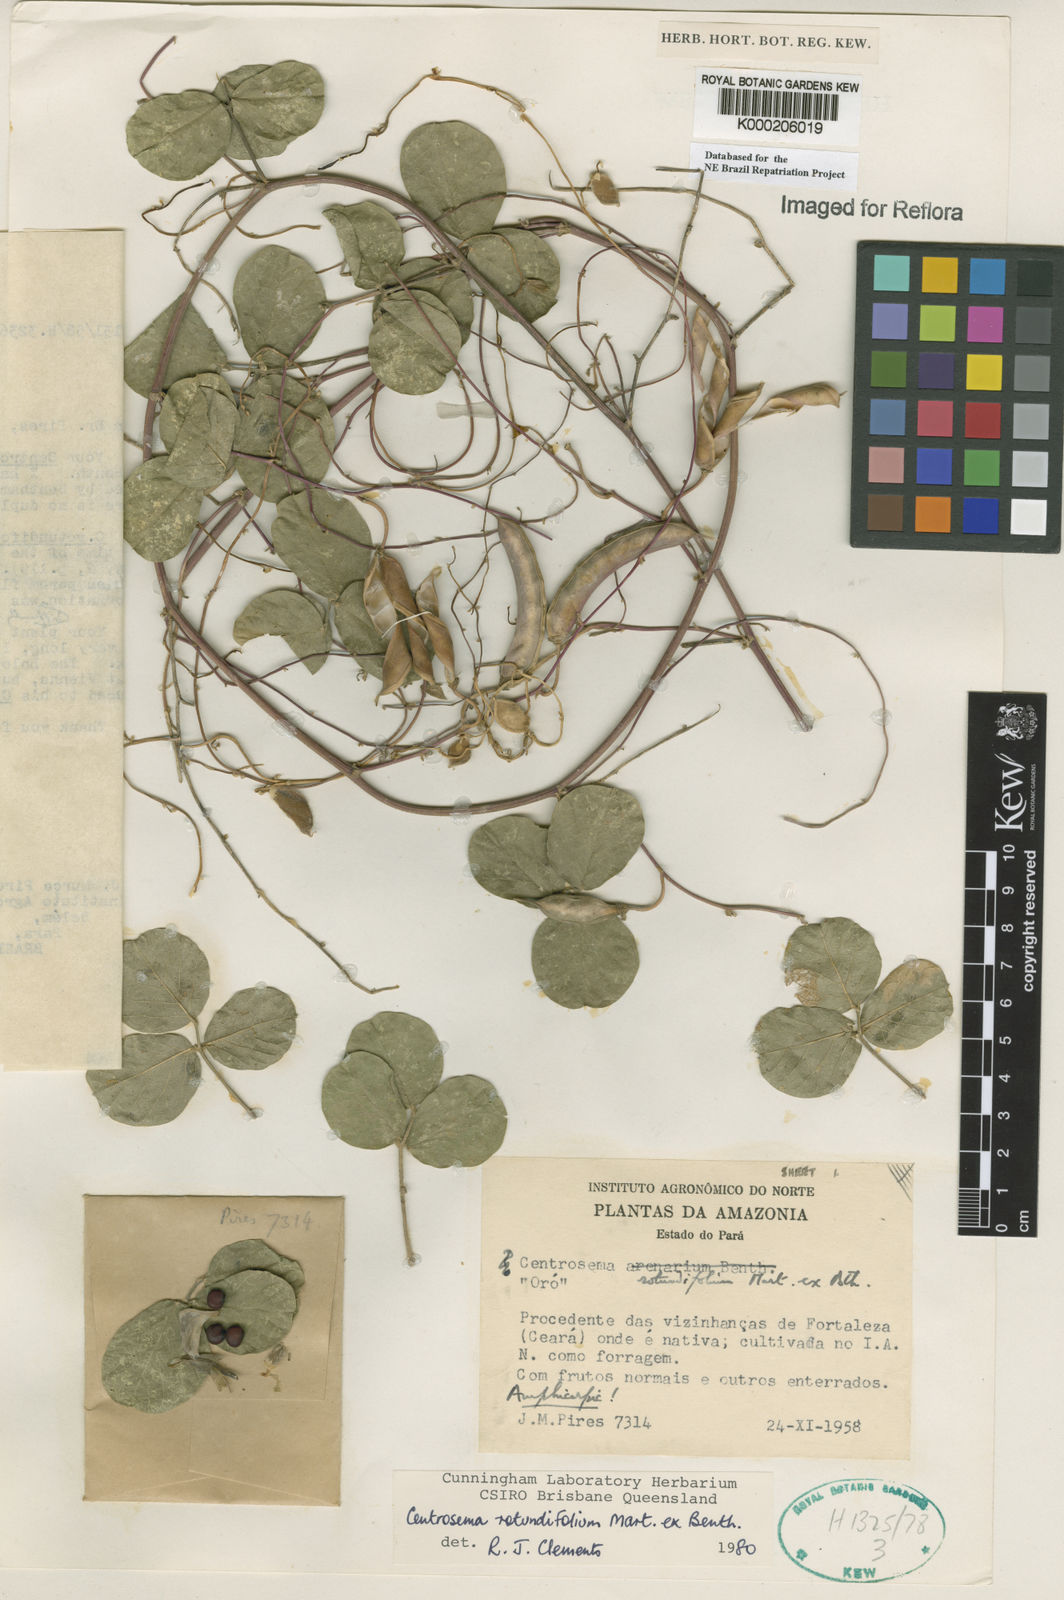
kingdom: Plantae
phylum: Tracheophyta
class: Magnoliopsida
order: Fabales
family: Fabaceae
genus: Centrosema
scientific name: Centrosema rotundifolium
